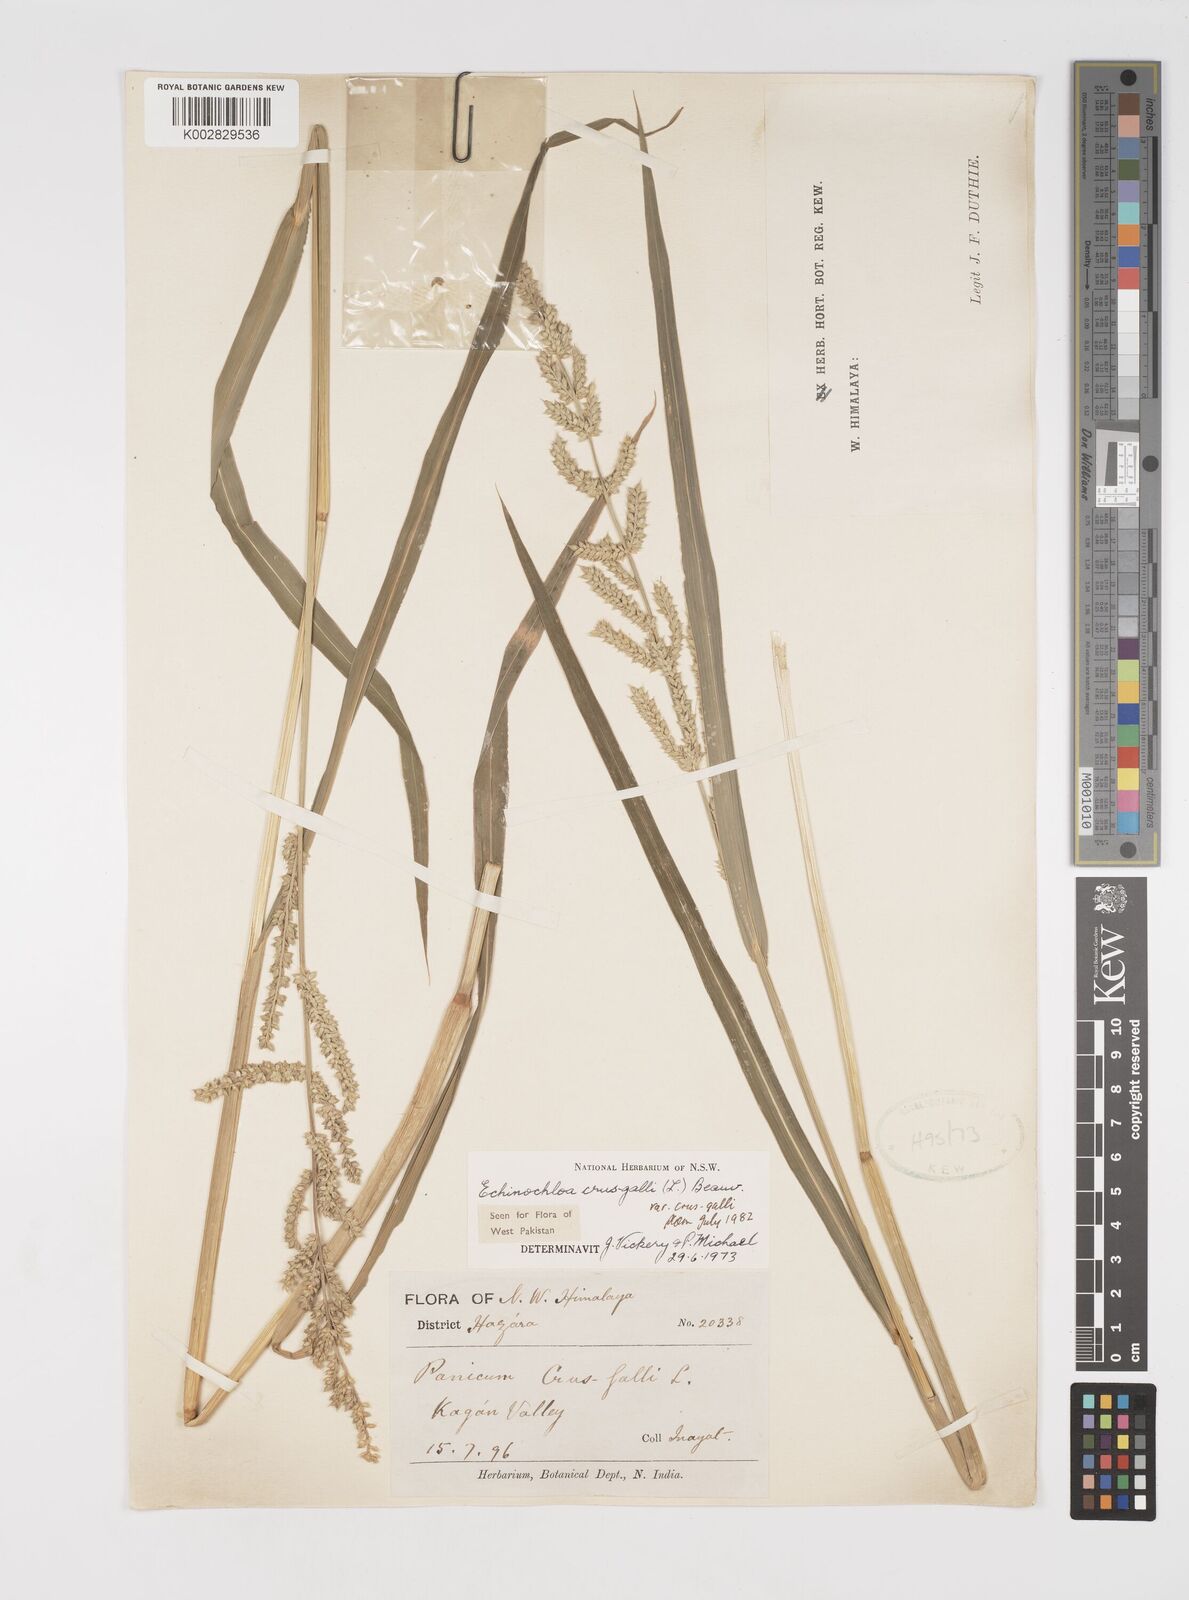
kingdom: Plantae
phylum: Tracheophyta
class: Liliopsida
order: Poales
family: Poaceae
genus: Echinochloa
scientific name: Echinochloa crus-galli
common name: Cockspur
